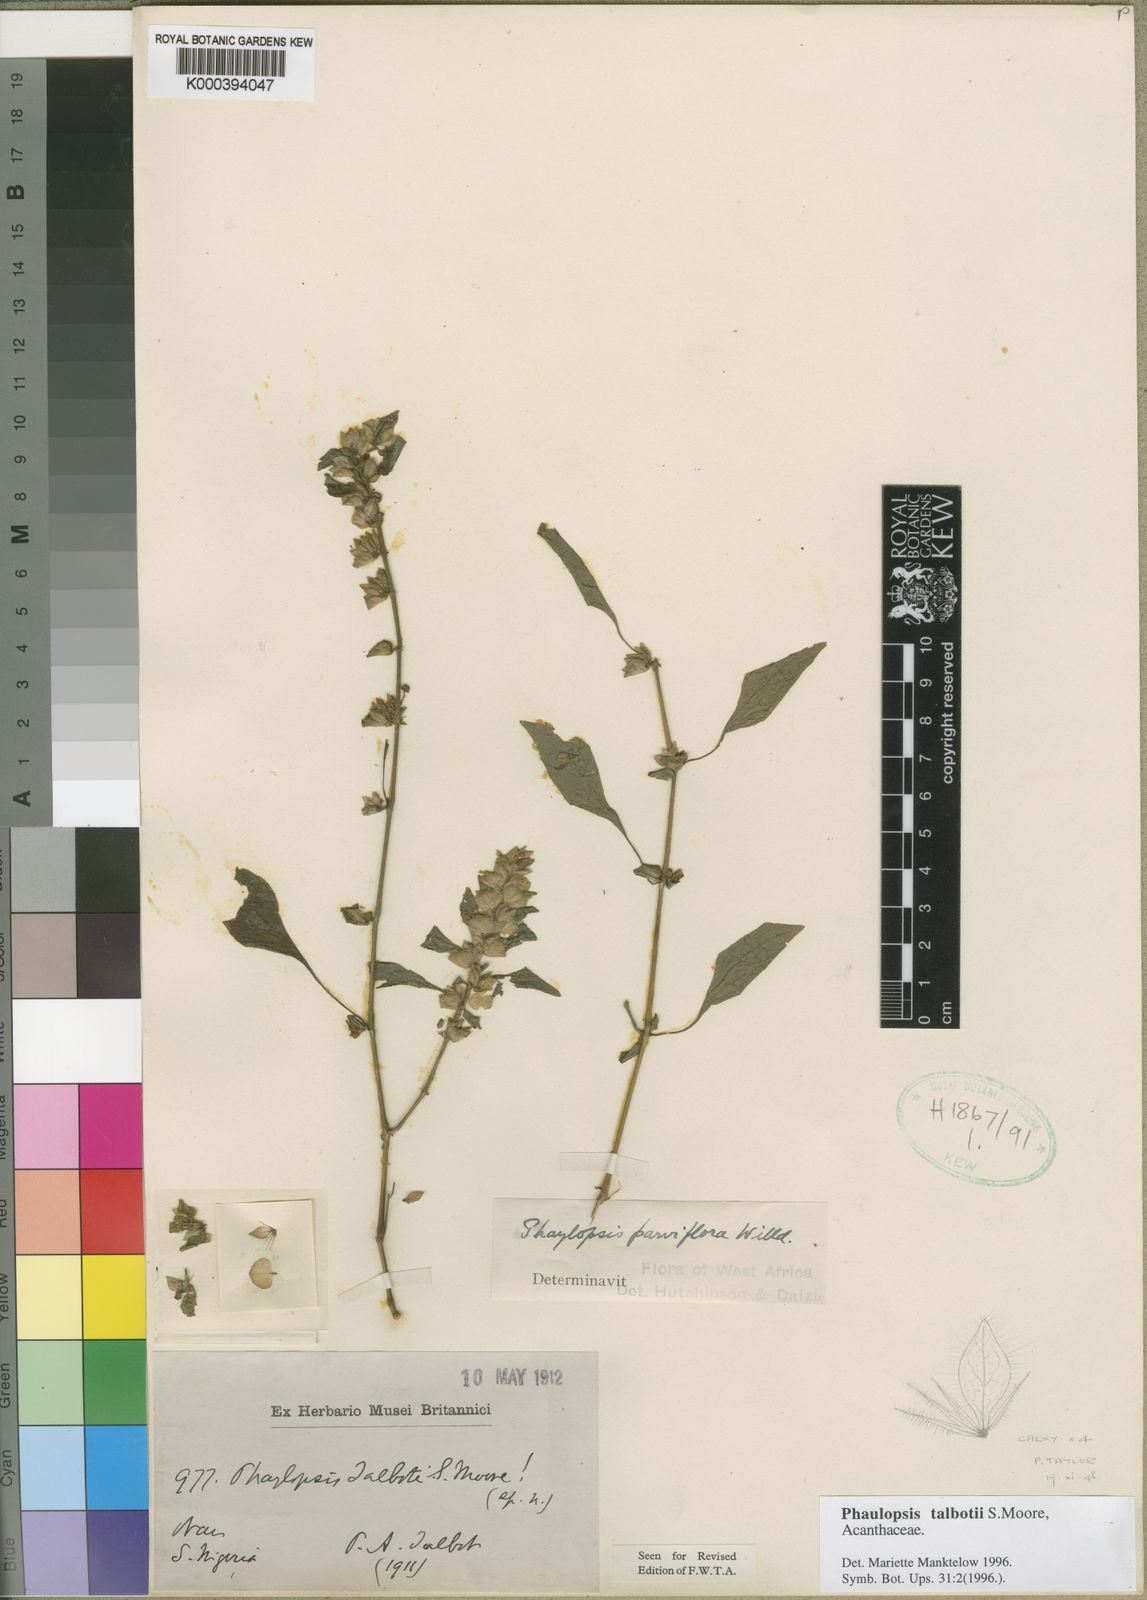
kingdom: Plantae
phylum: Tracheophyta
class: Magnoliopsida
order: Lamiales
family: Acanthaceae
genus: Phaulopsis
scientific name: Phaulopsis talbotii
